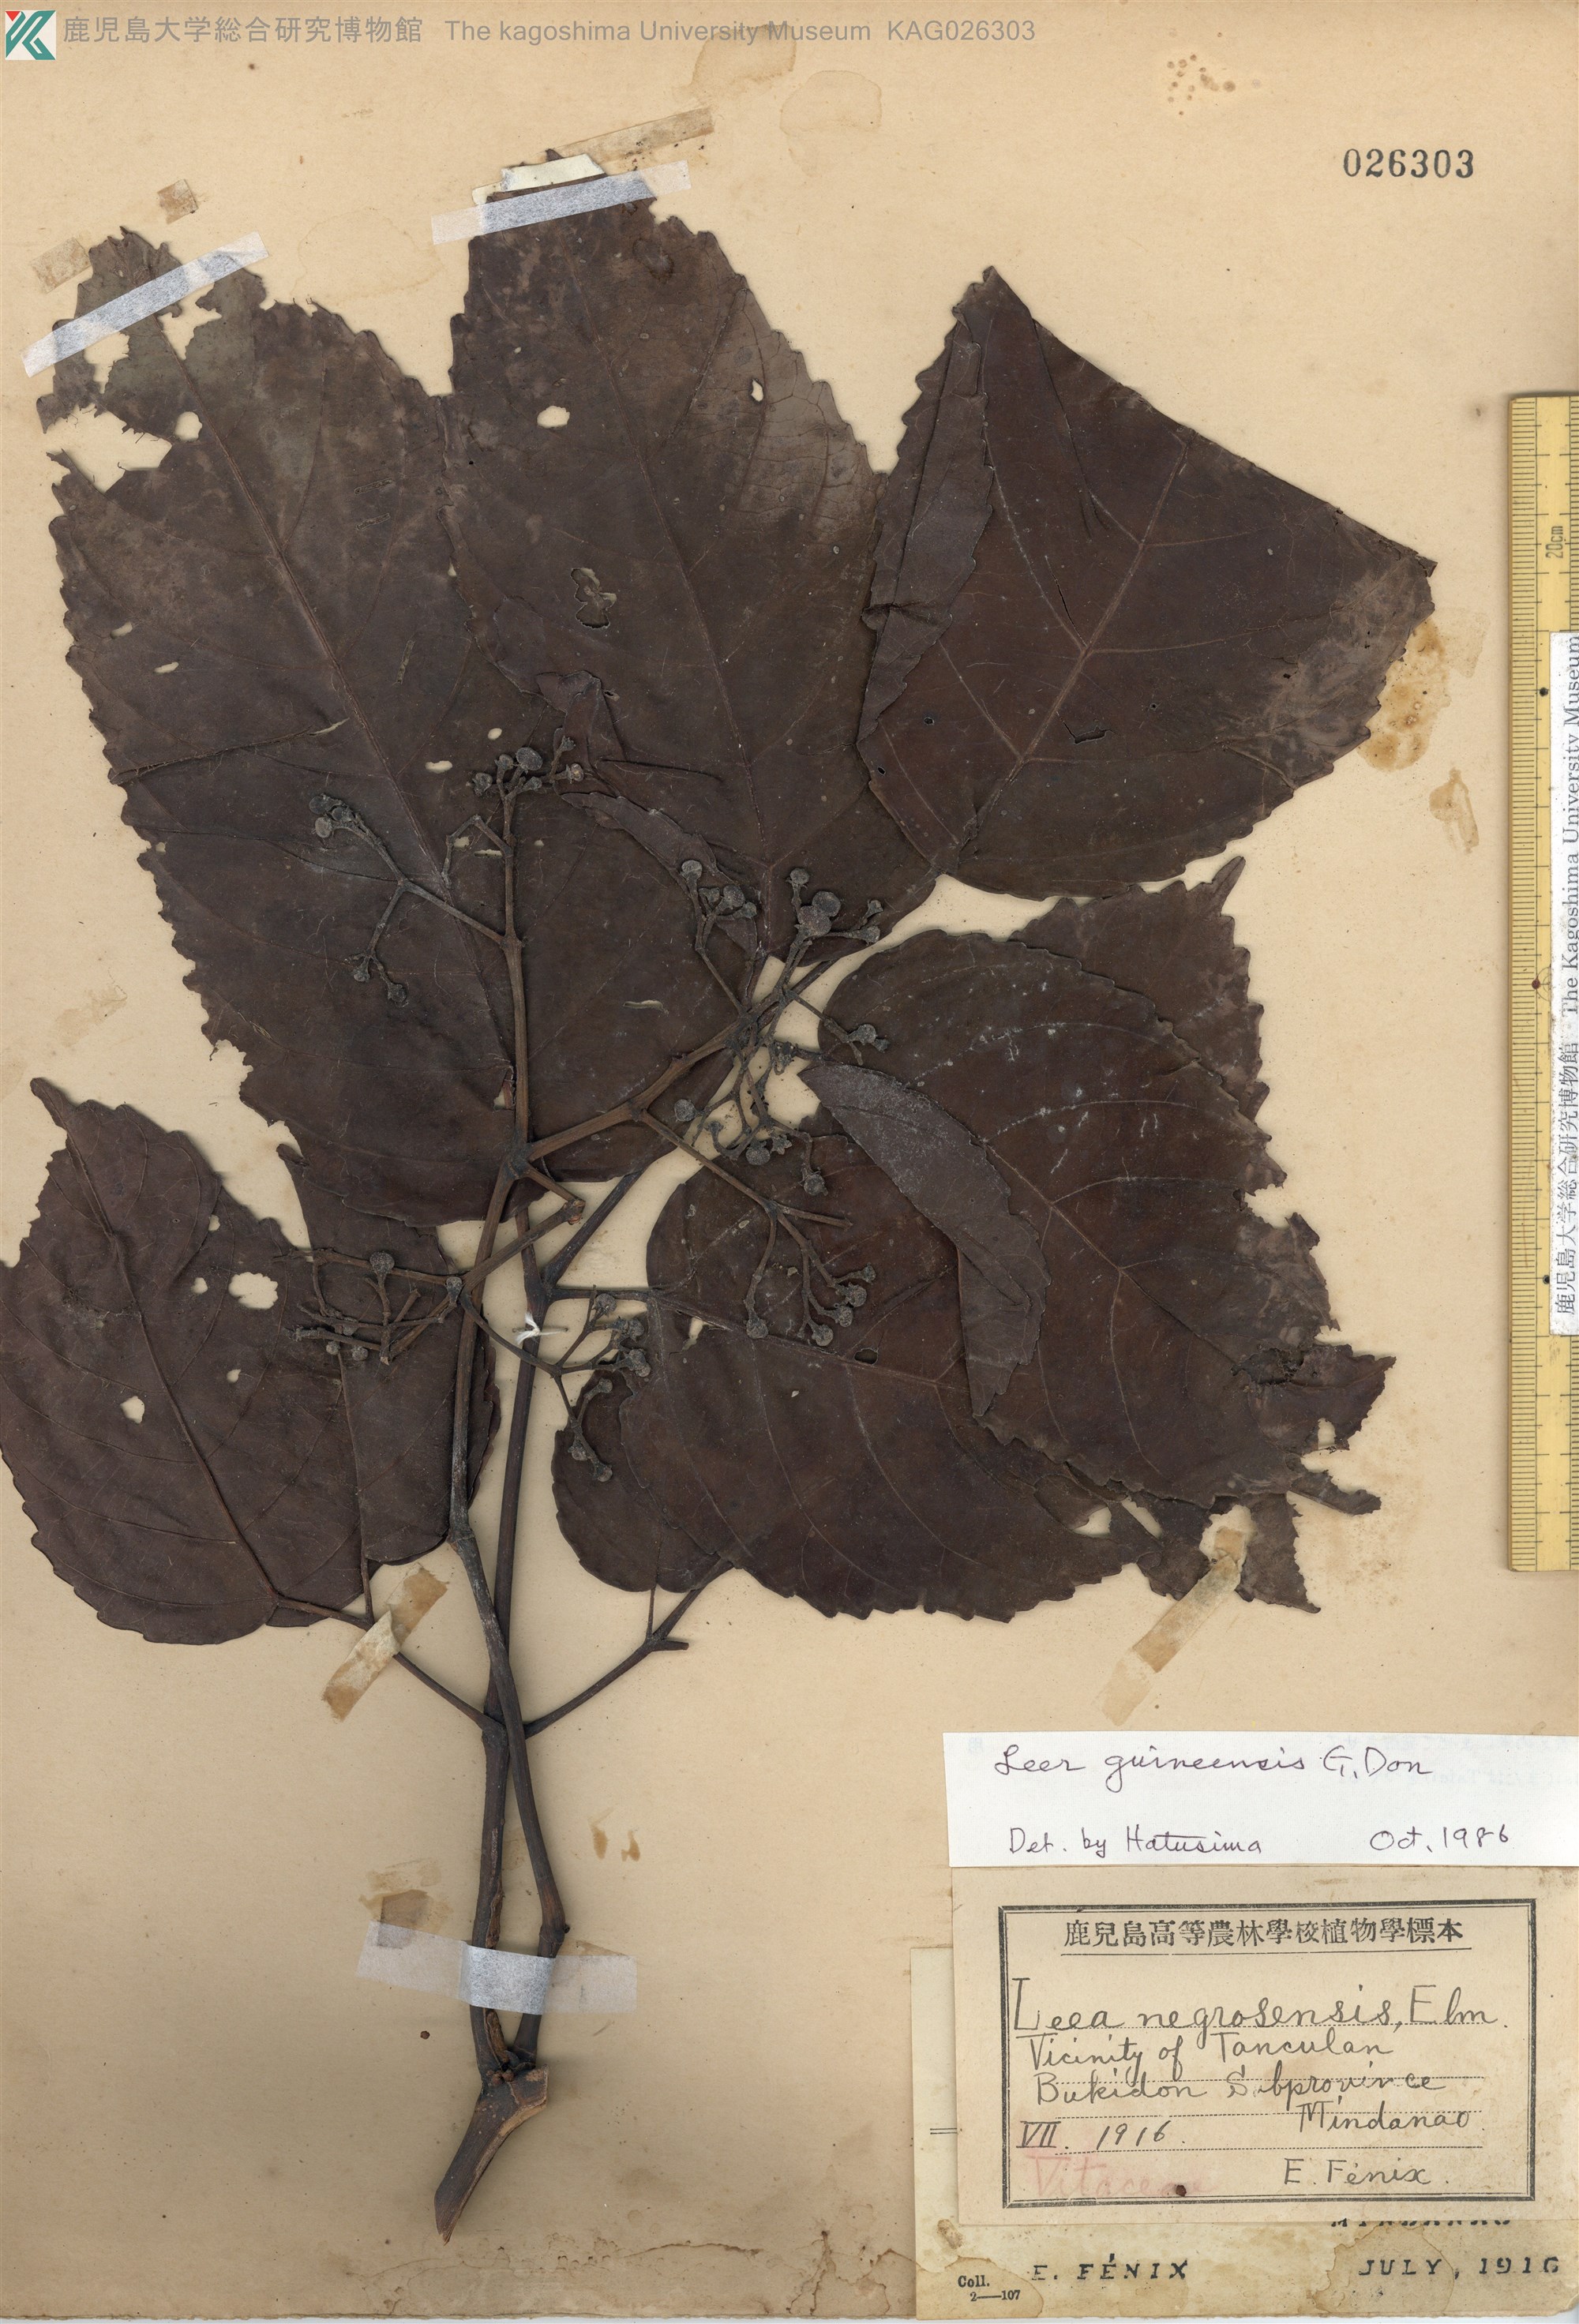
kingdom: Plantae
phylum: Tracheophyta
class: Magnoliopsida
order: Vitales
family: Vitaceae
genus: Leea
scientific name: Leea guineensis
